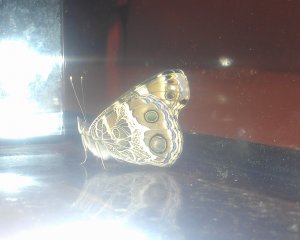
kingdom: Animalia
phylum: Arthropoda
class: Insecta
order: Lepidoptera
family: Nymphalidae
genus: Vanessa
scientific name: Vanessa virginiensis
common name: American Lady
